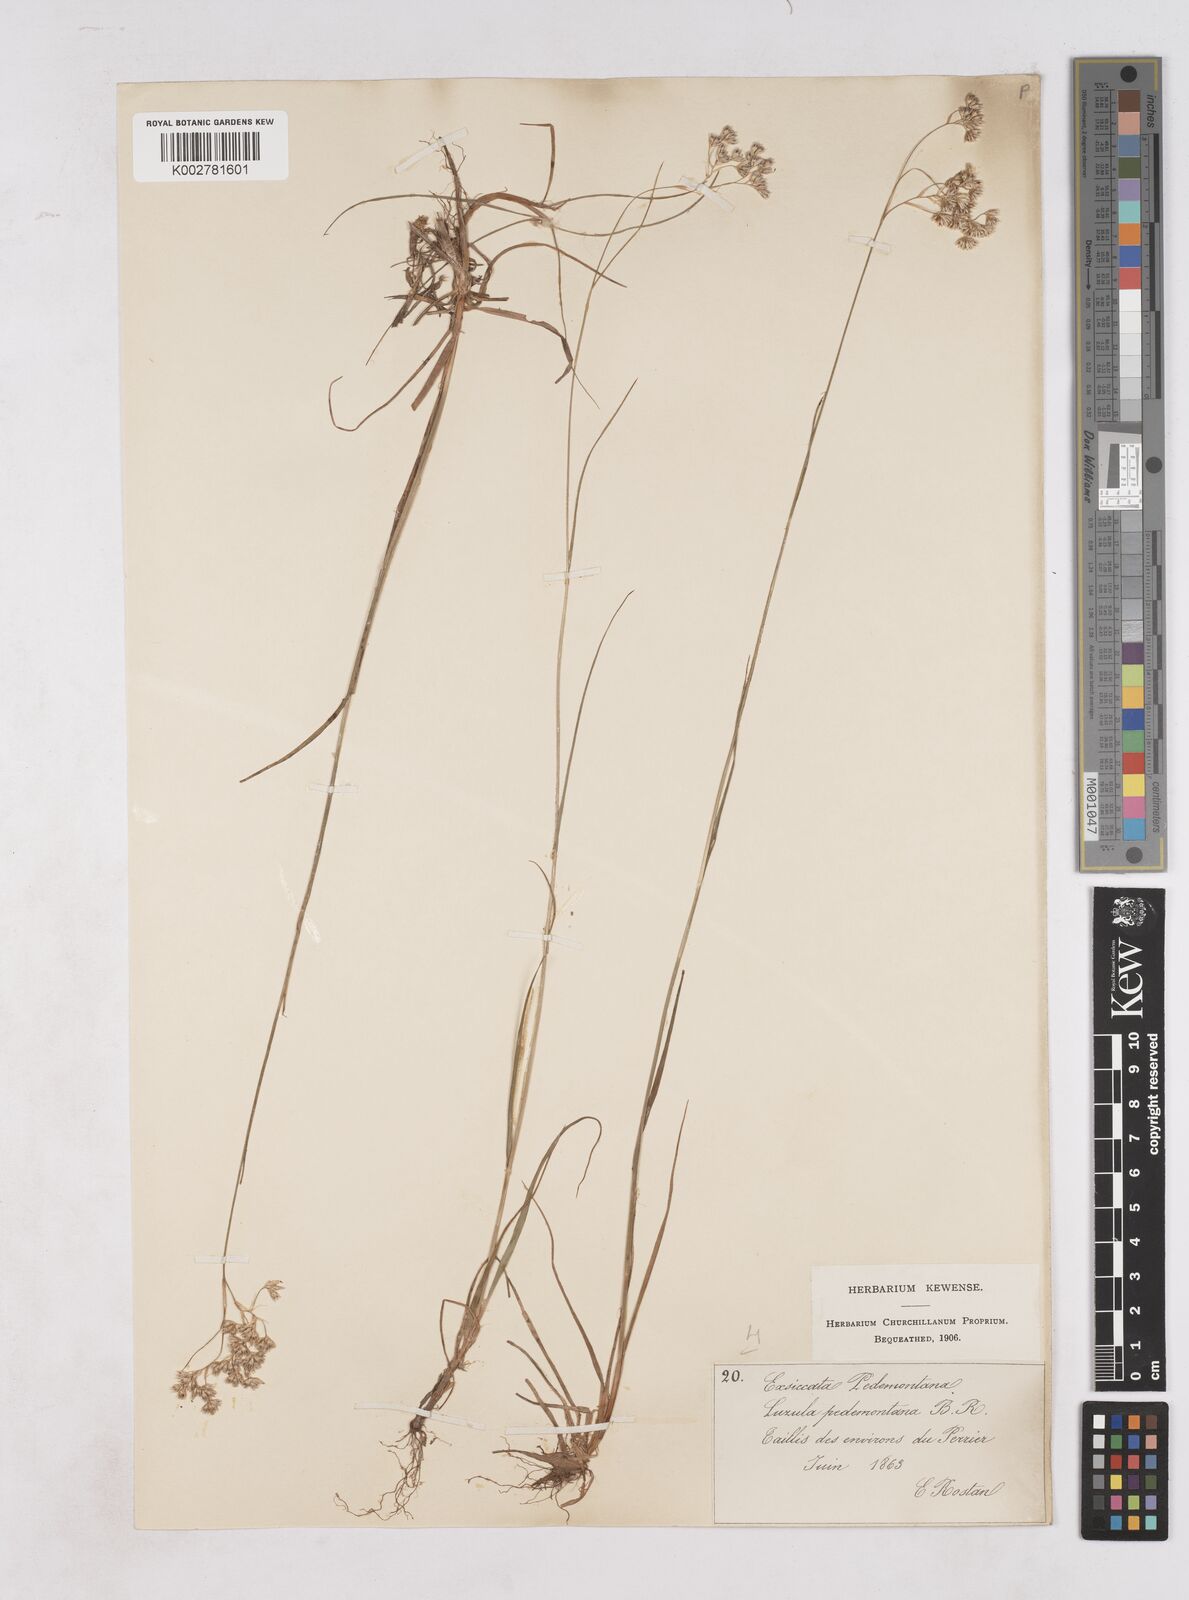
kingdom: Plantae
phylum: Tracheophyta
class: Liliopsida
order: Poales
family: Juncaceae
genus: Luzula
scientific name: Luzula pedemontana
